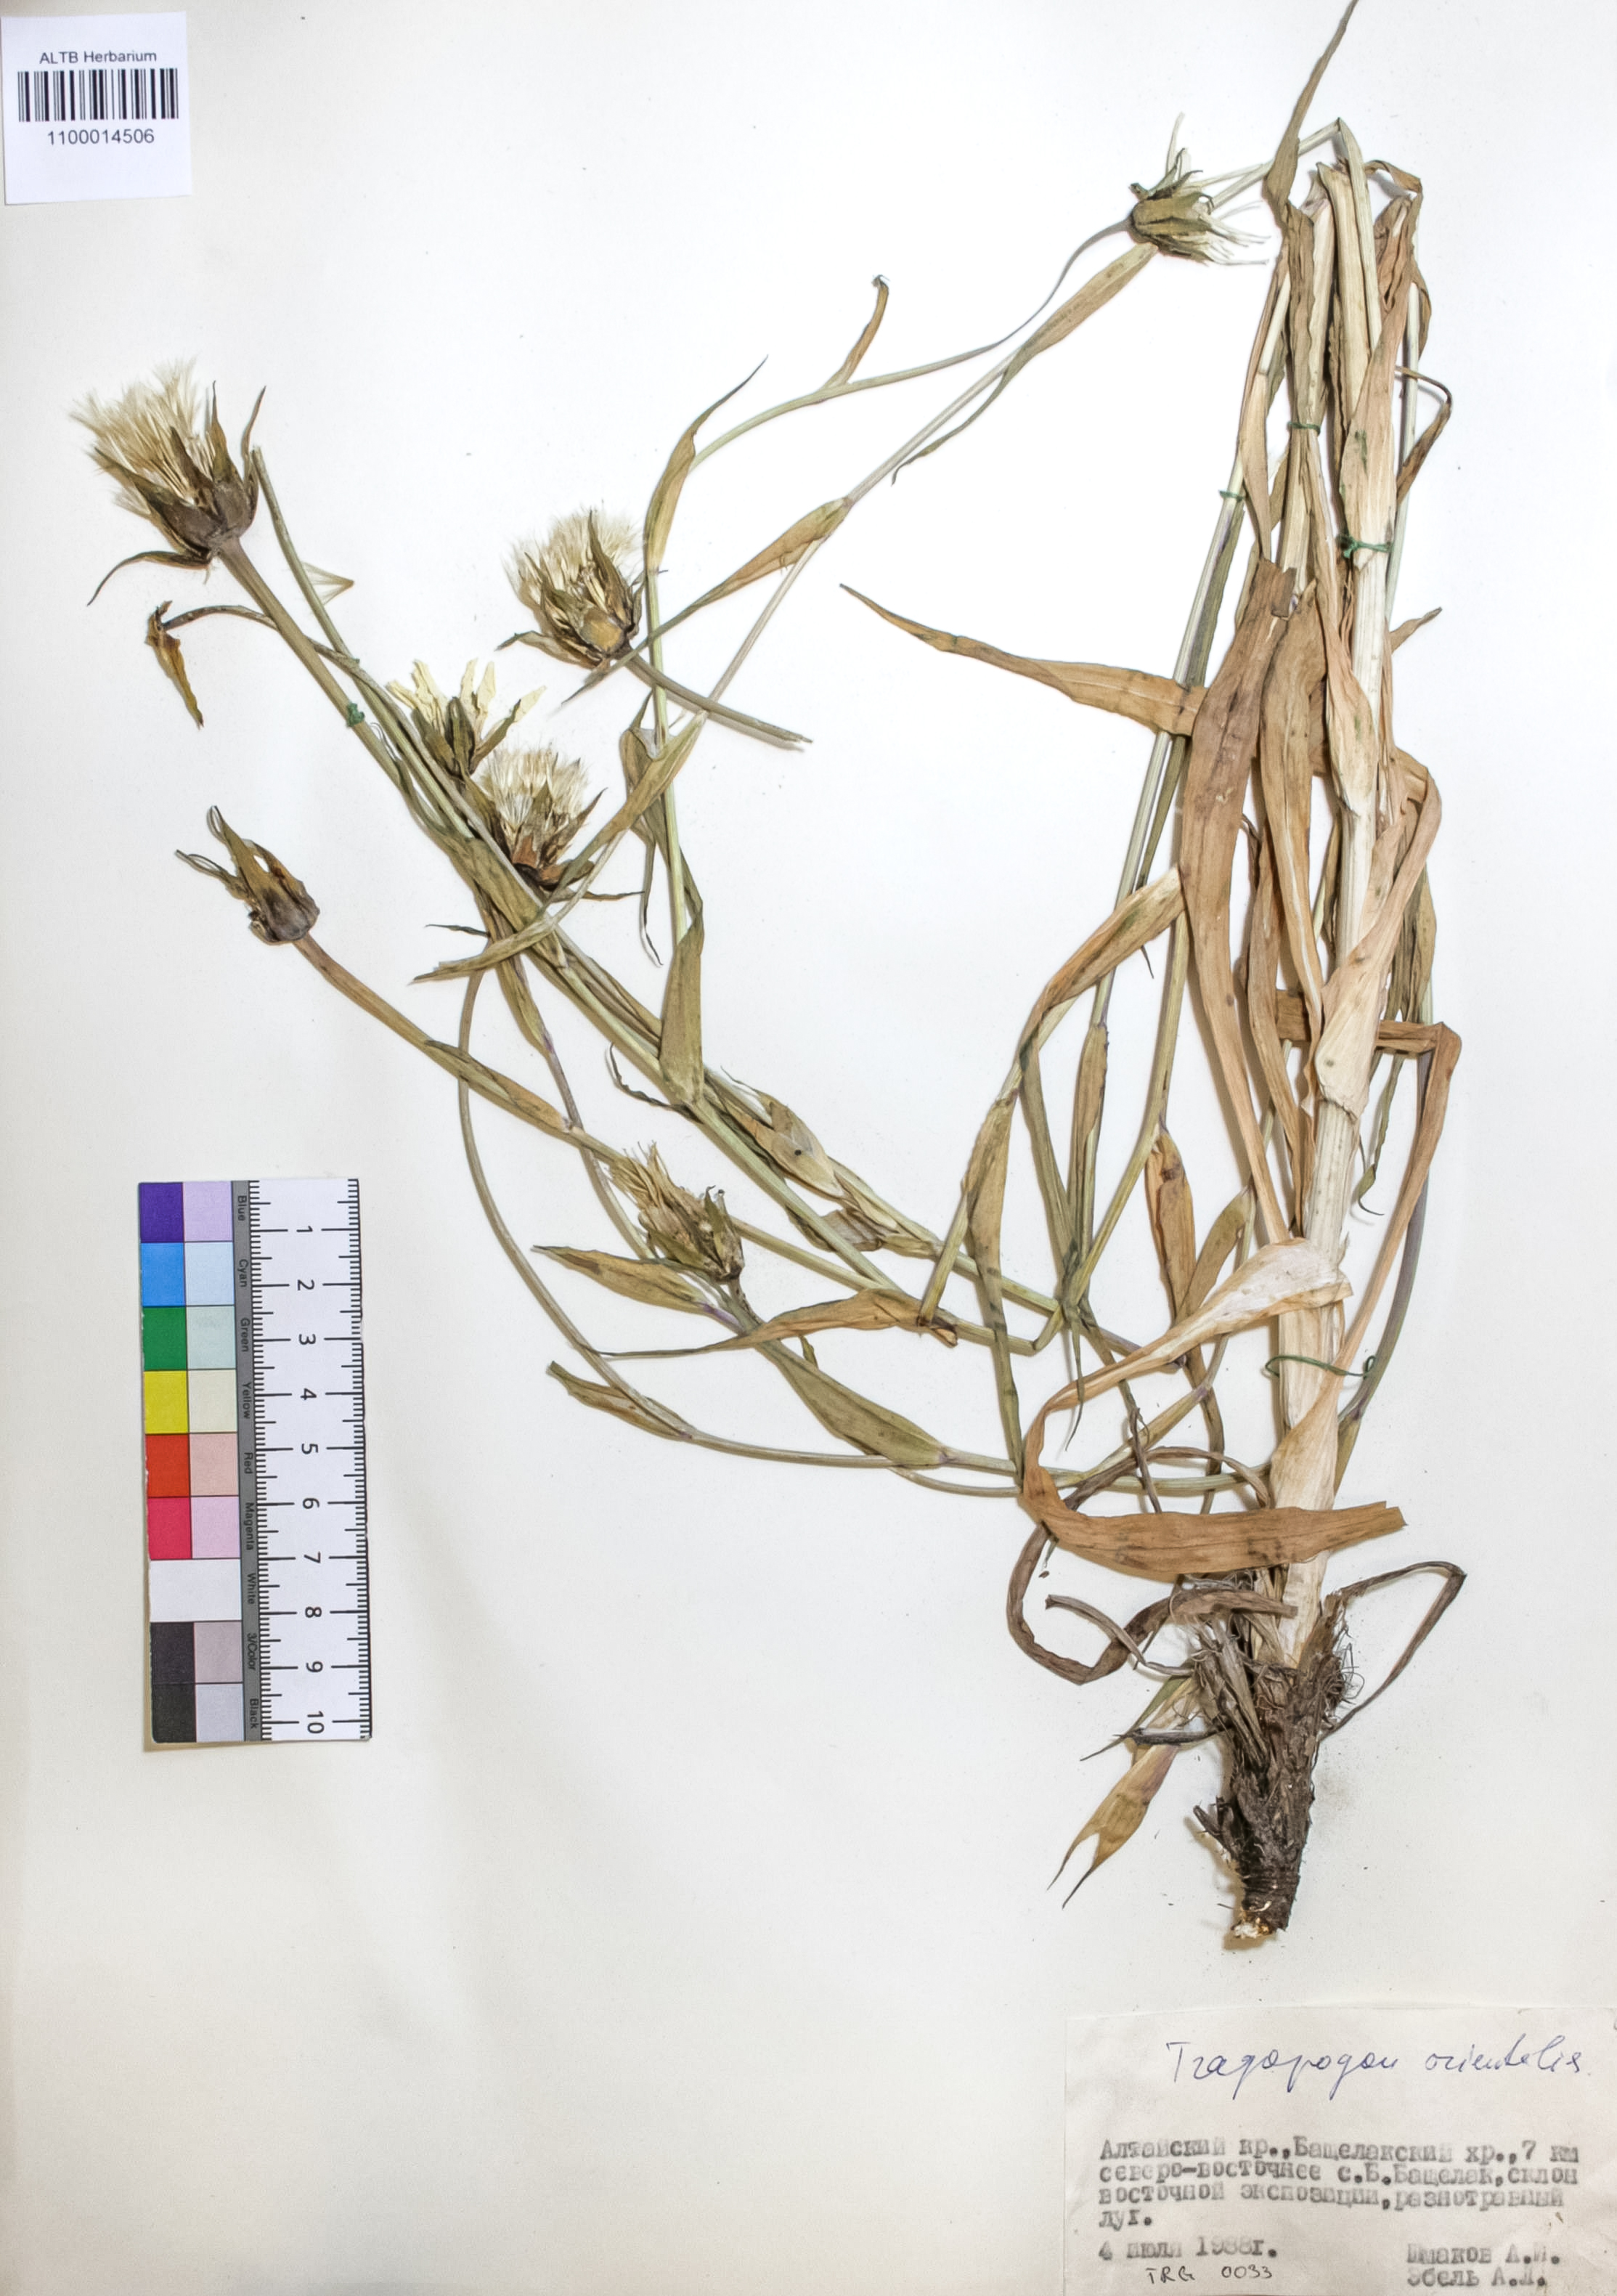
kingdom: Plantae
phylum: Tracheophyta
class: Magnoliopsida
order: Asterales
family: Asteraceae
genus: Tragopogon
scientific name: Tragopogon orientalis
